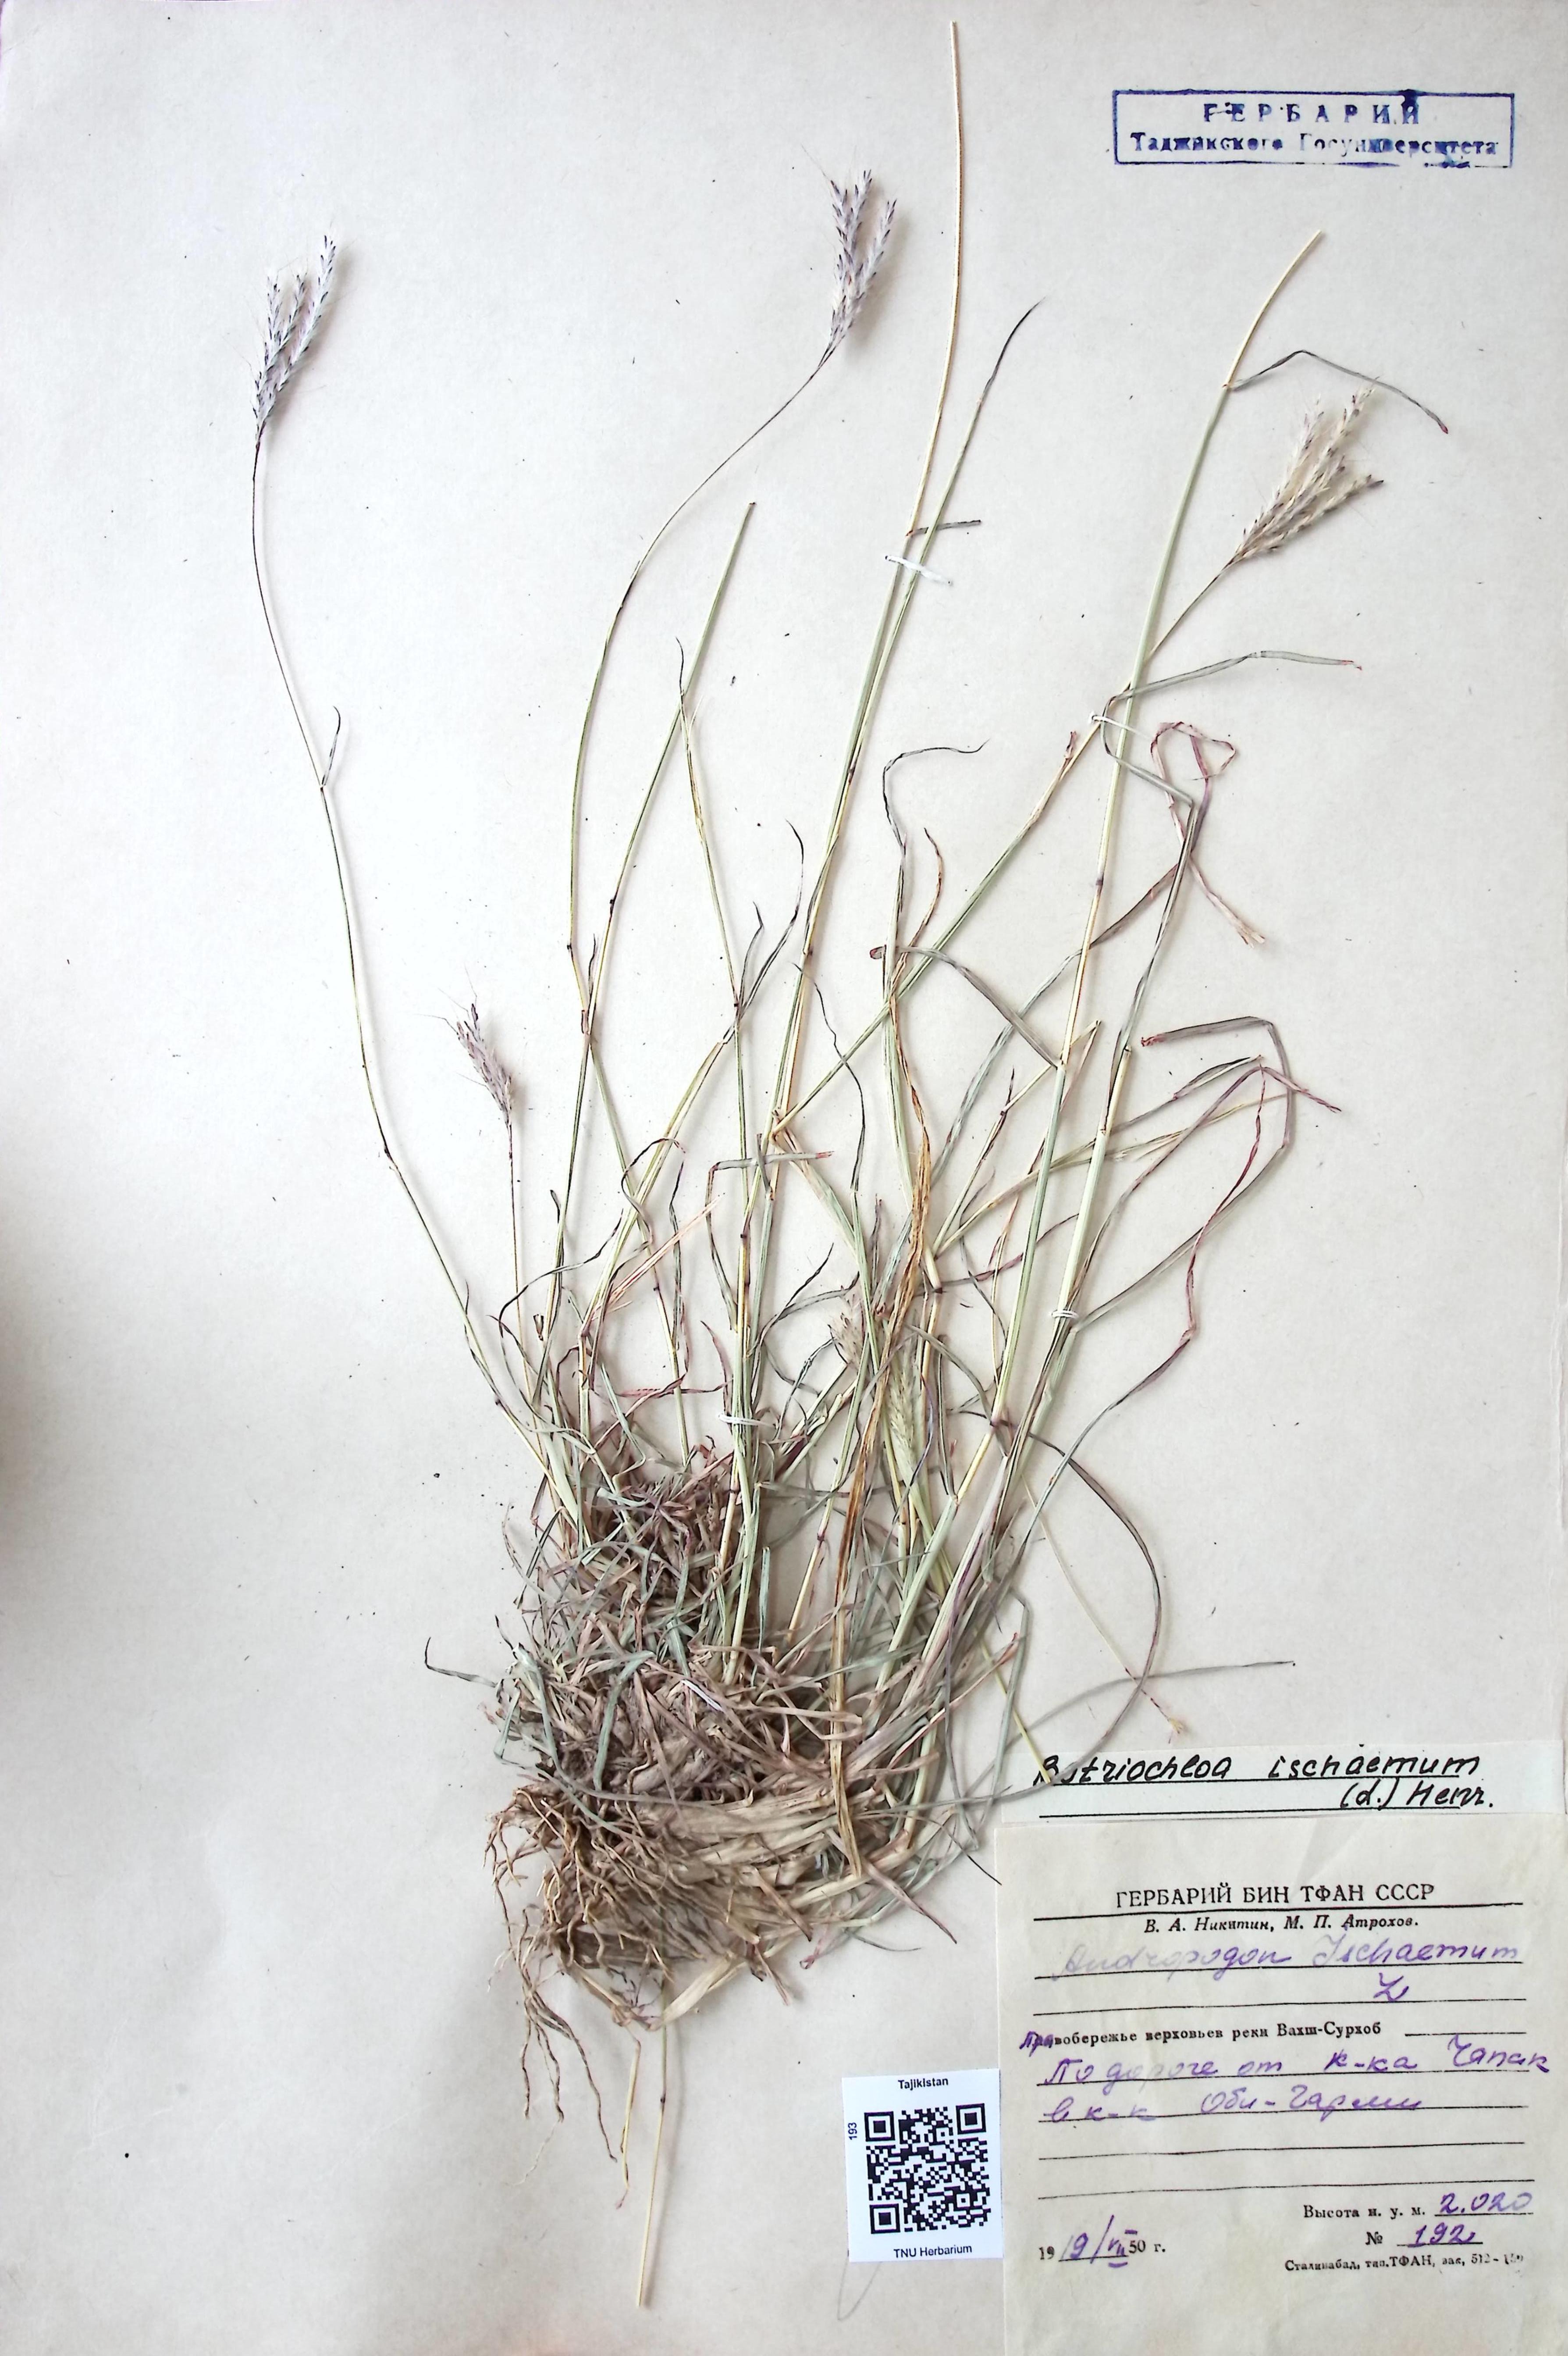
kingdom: Plantae
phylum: Tracheophyta
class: Liliopsida
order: Poales
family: Poaceae
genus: Bothriochloa
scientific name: Bothriochloa ischaemum
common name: Yellow bluestem
